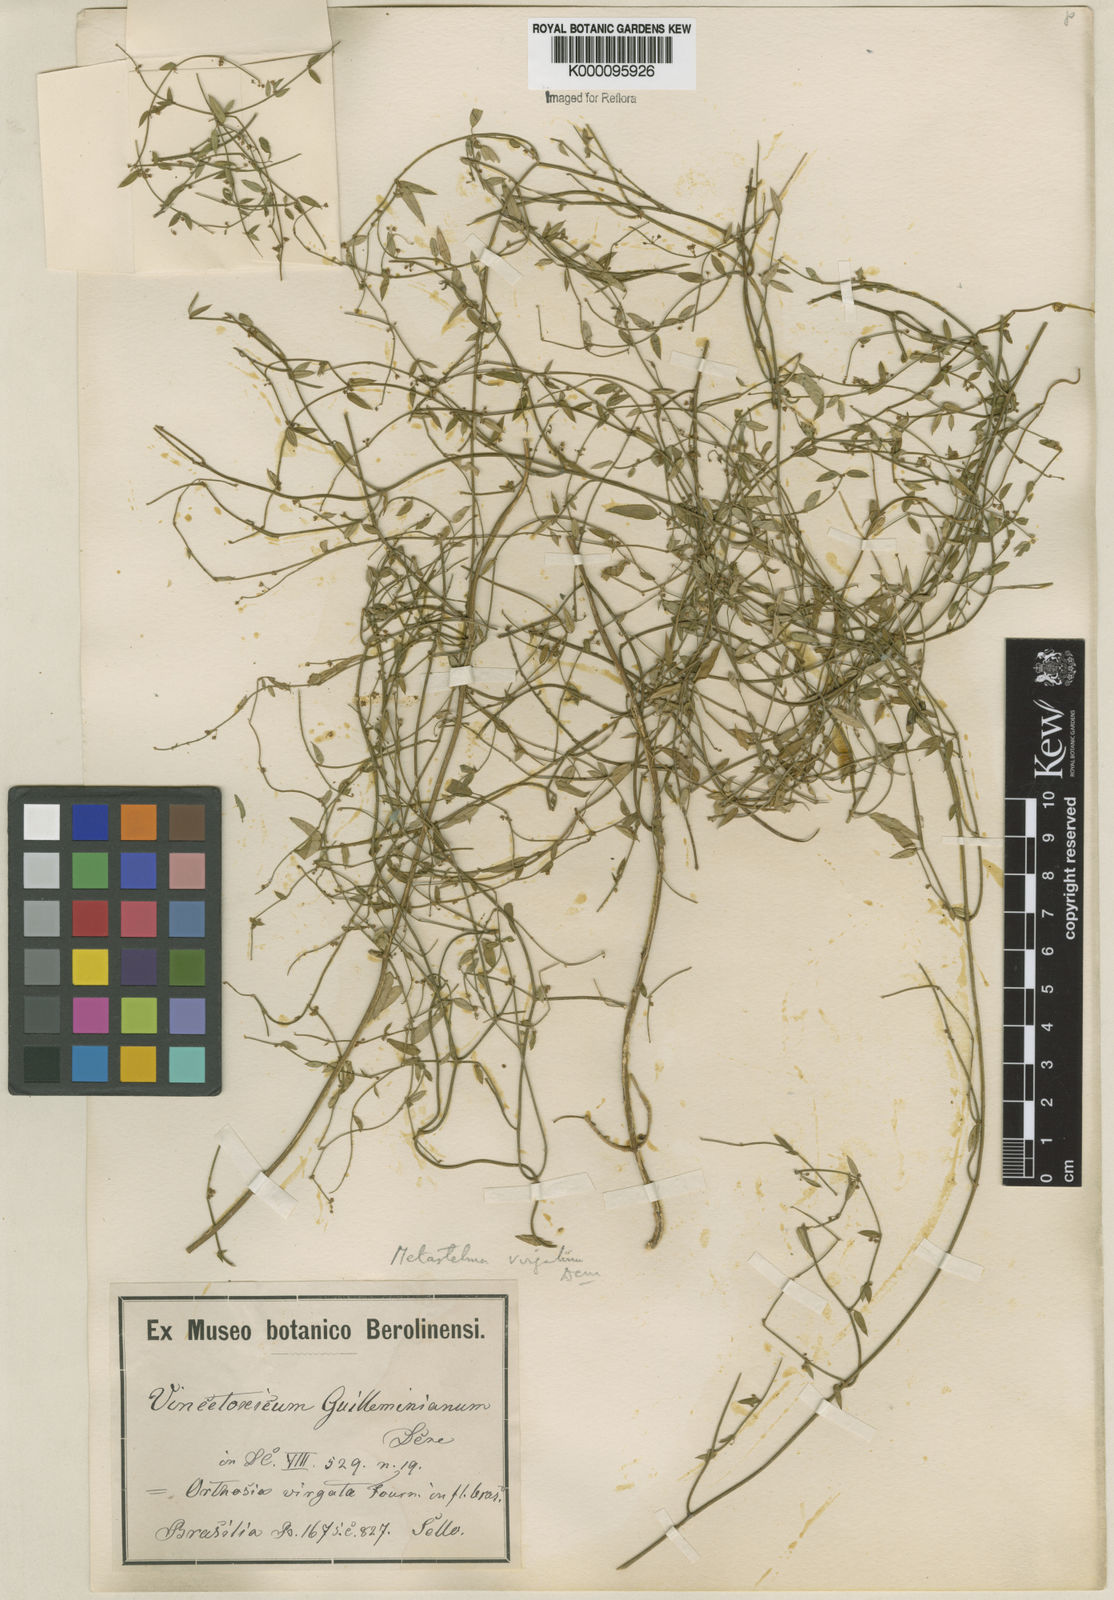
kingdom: Plantae
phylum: Tracheophyta
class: Magnoliopsida
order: Gentianales
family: Apocynaceae
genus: Orthosia
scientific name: Orthosia virgata
